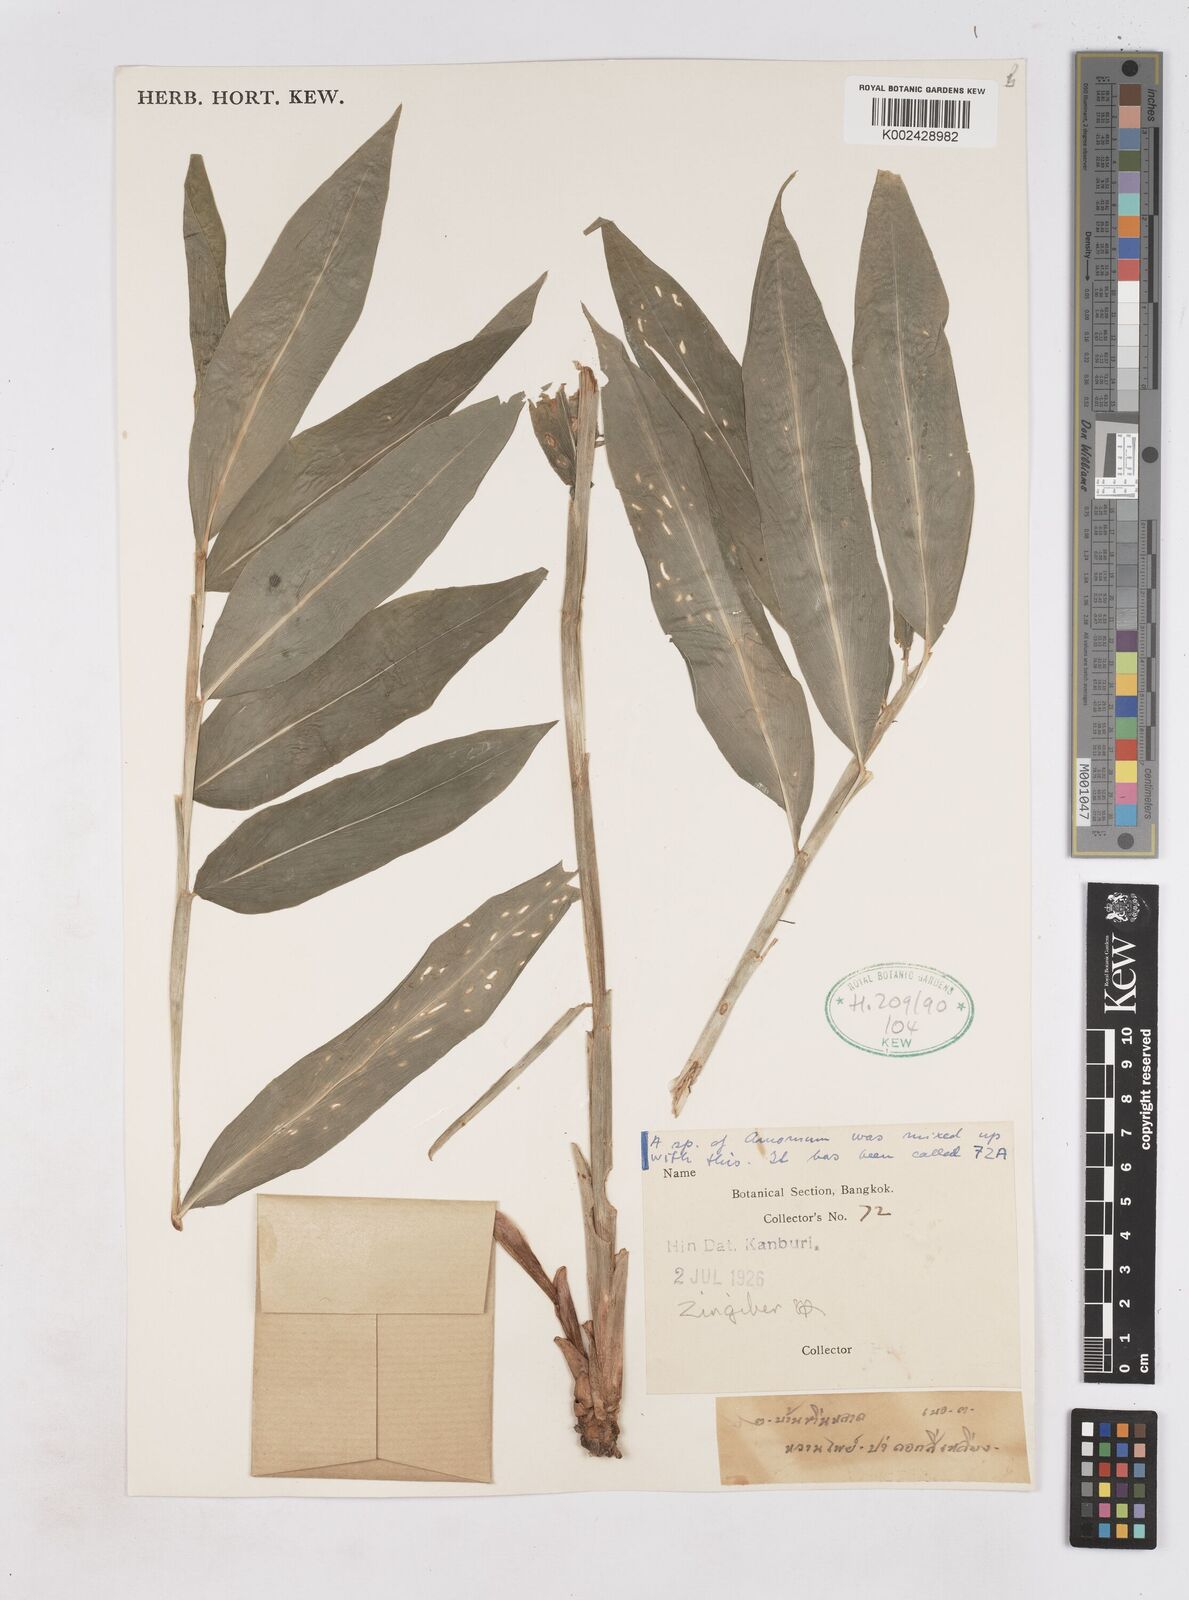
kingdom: Plantae
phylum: Tracheophyta
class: Liliopsida
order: Zingiberales
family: Zingiberaceae
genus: Zingiber
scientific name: Zingiber
